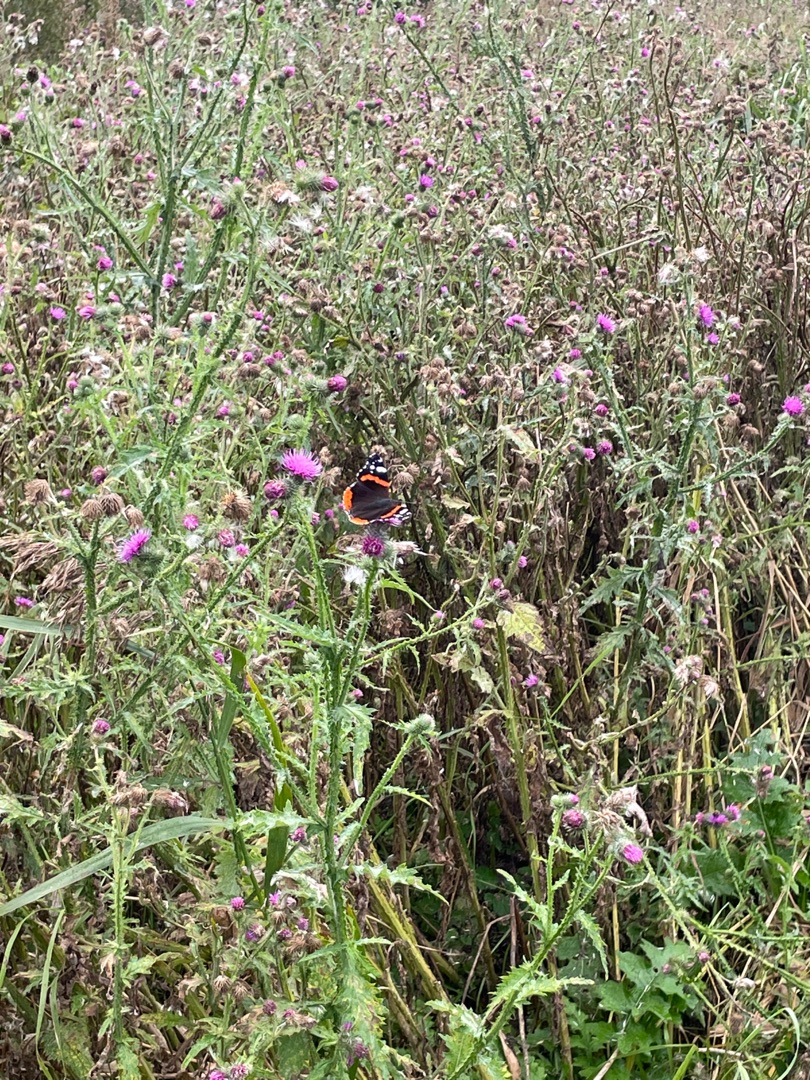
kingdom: Animalia
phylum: Arthropoda
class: Insecta
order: Lepidoptera
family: Nymphalidae
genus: Vanessa
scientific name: Vanessa atalanta
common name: Admiral
